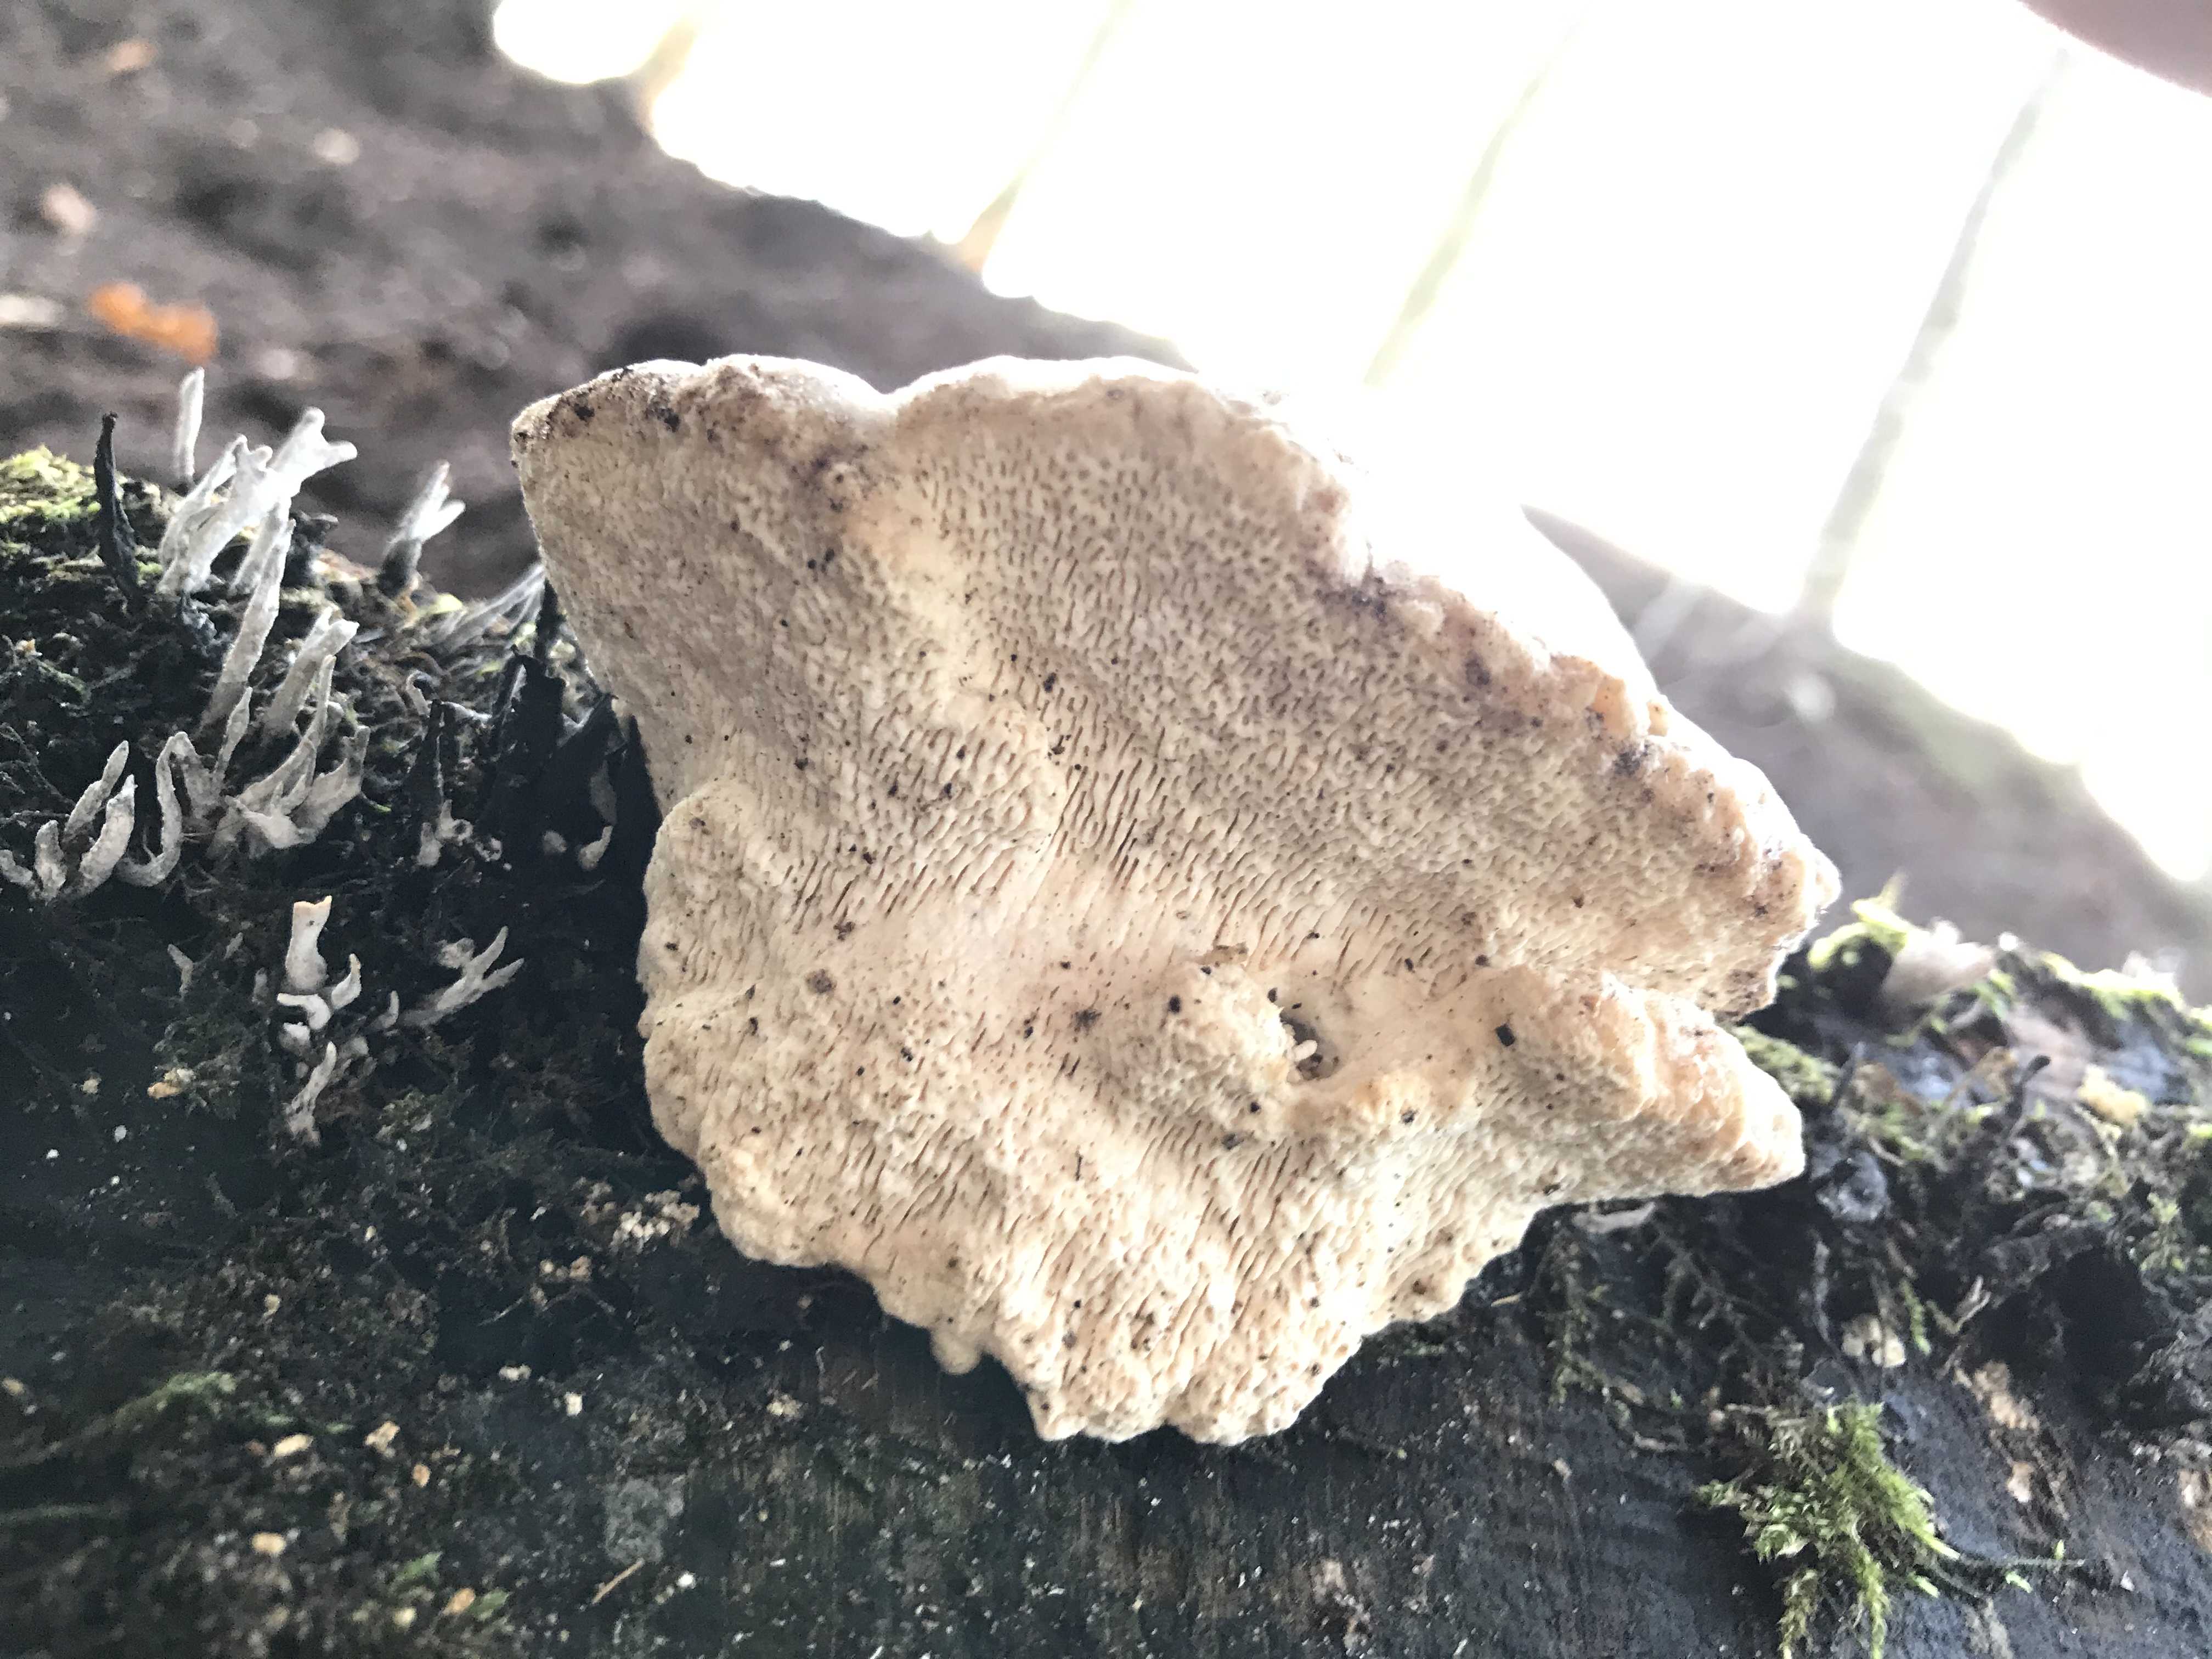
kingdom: Fungi
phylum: Basidiomycota
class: Agaricomycetes
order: Polyporales
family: Polyporaceae
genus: Trametes
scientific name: Trametes gibbosa
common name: puklet læderporesvamp
